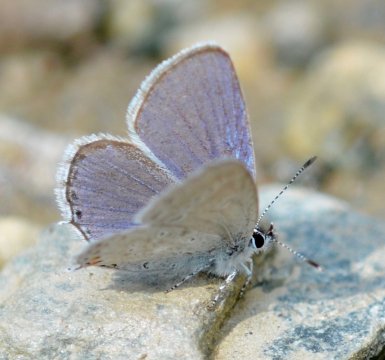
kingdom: Animalia
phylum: Arthropoda
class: Insecta
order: Lepidoptera
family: Lycaenidae
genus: Elkalyce
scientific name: Elkalyce amyntula
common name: Western Tailed-Blue
